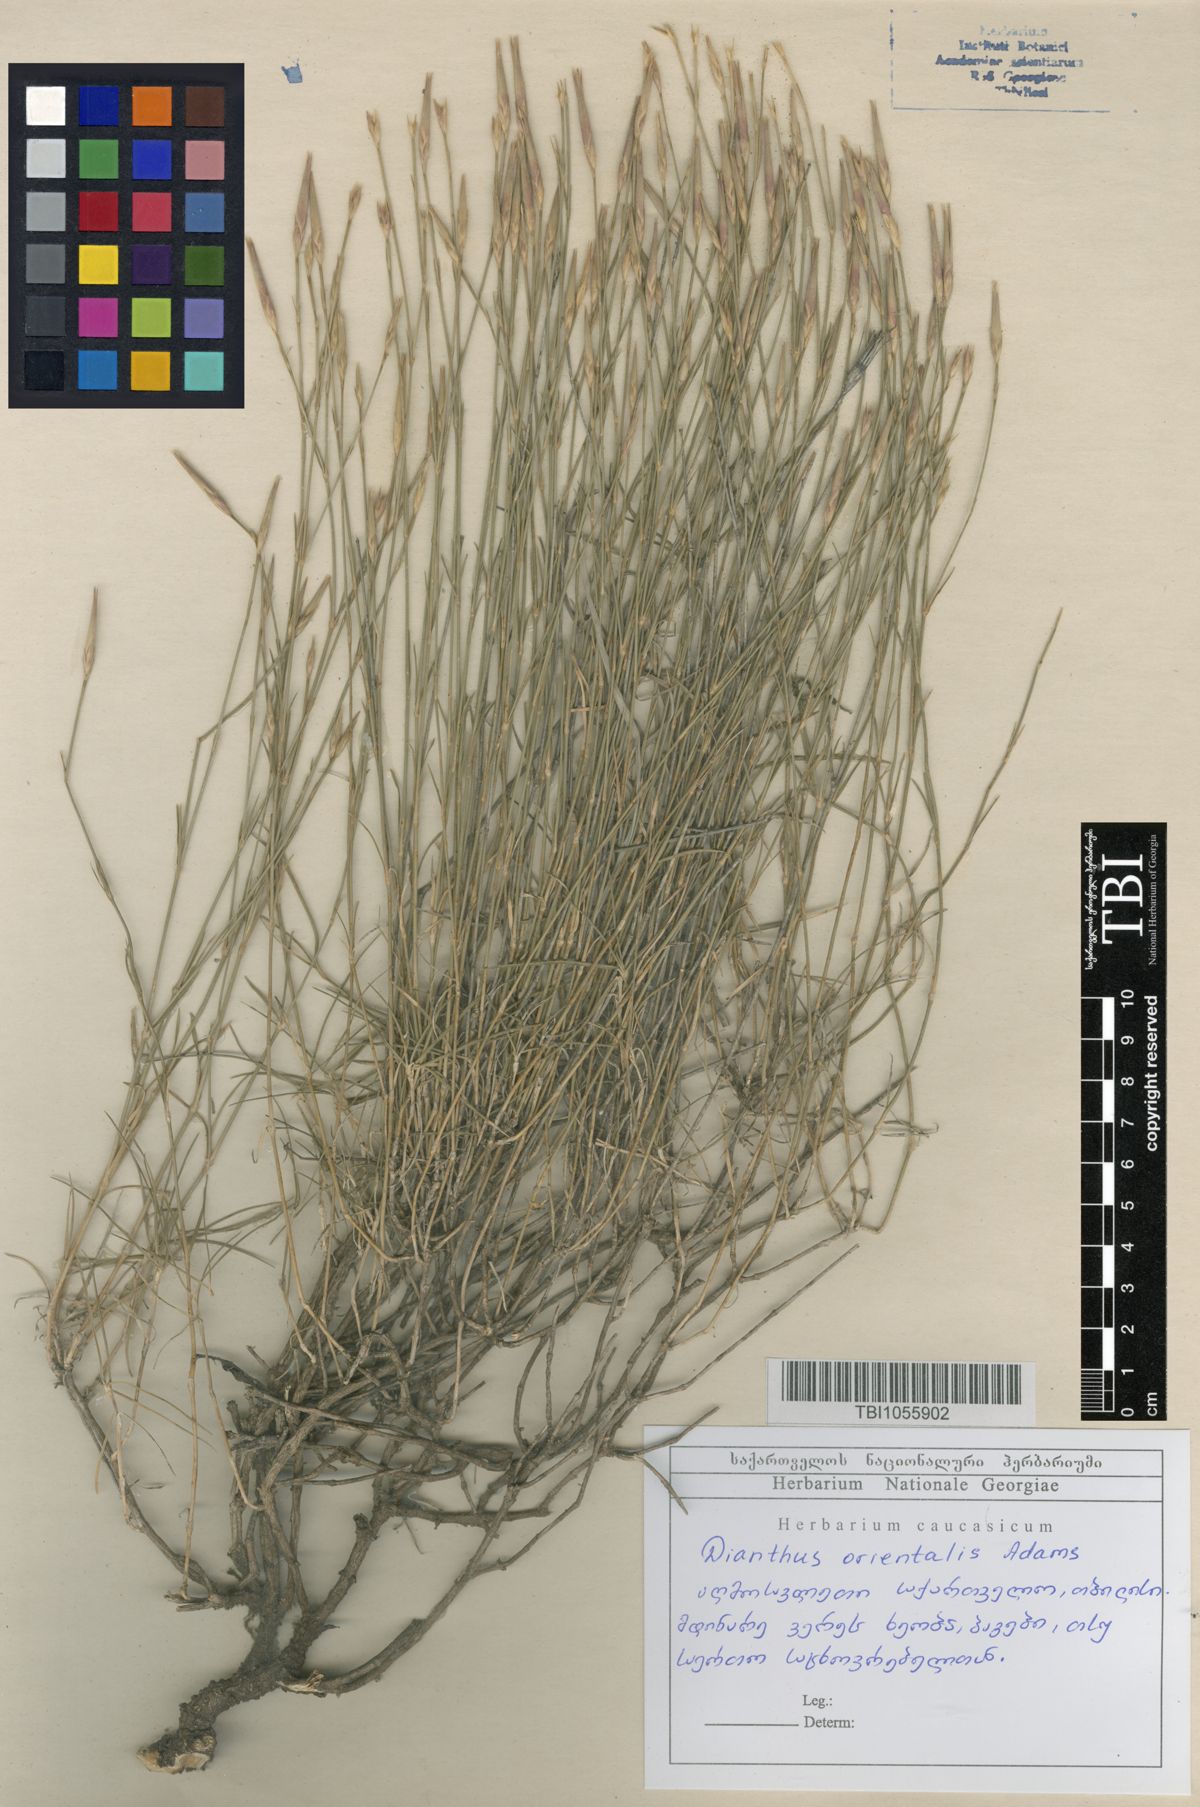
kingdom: Plantae
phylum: Tracheophyta
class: Magnoliopsida
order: Caryophyllales
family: Caryophyllaceae
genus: Dianthus
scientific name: Dianthus orientalis
